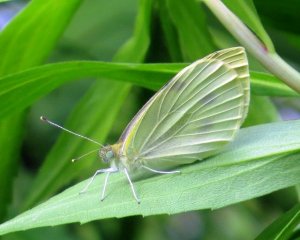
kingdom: Animalia
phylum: Arthropoda
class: Insecta
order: Lepidoptera
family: Pieridae
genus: Pieris
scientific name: Pieris rapae
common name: Cabbage White
